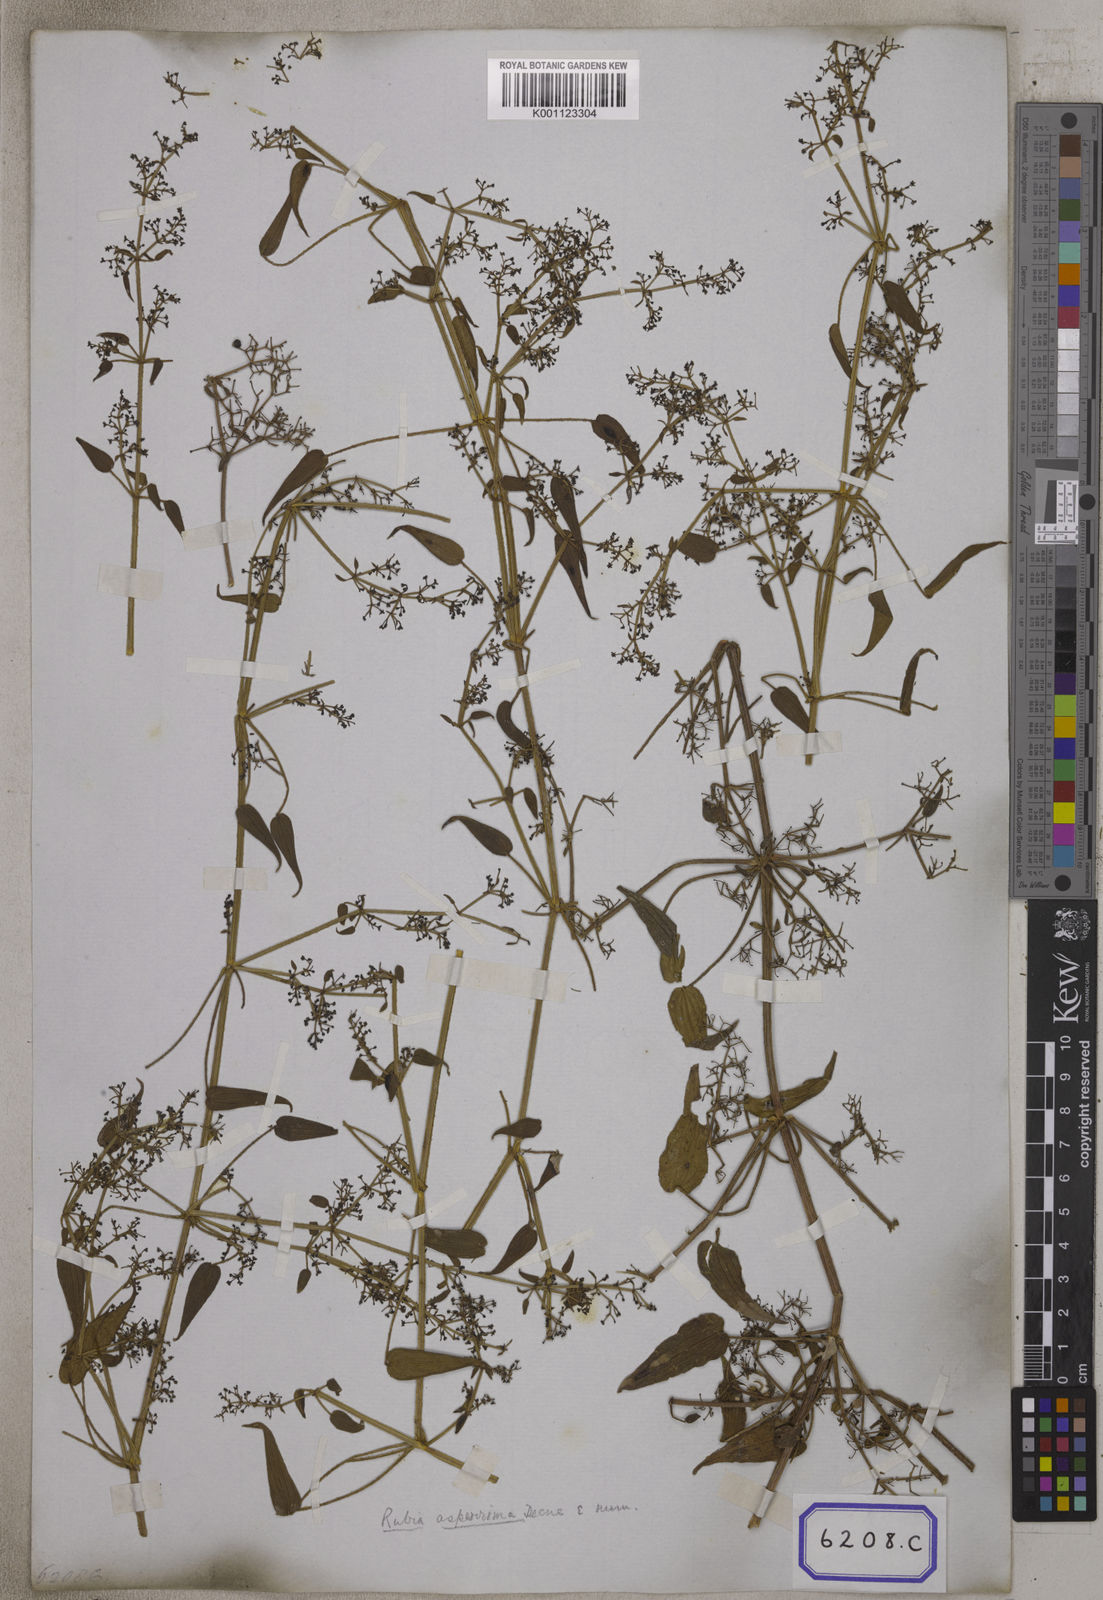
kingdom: Plantae
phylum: Tracheophyta
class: Magnoliopsida
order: Gentianales
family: Rubiaceae
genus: Rubia
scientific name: Rubia alata
